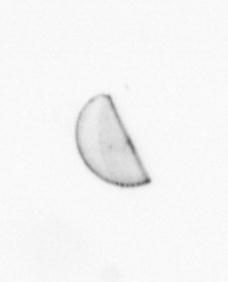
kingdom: Chromista
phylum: Ochrophyta
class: Bacillariophyceae
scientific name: Bacillariophyceae
